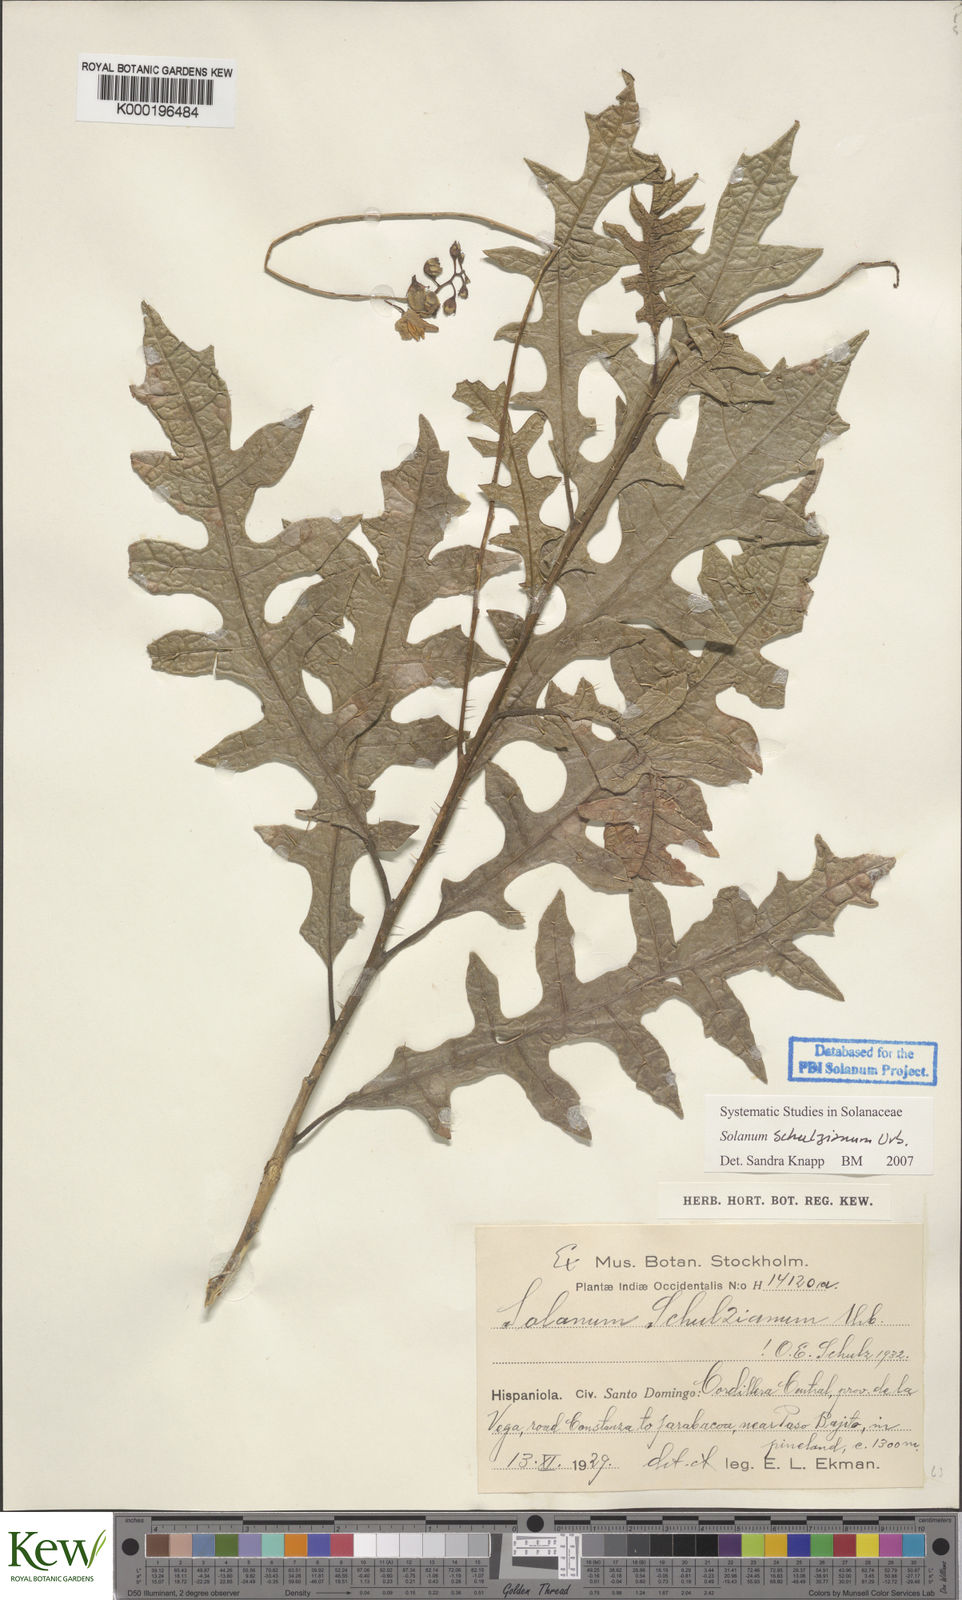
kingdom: Plantae
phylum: Tracheophyta
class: Magnoliopsida
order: Solanales
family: Solanaceae
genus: Solanum
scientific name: Solanum schulzianum
